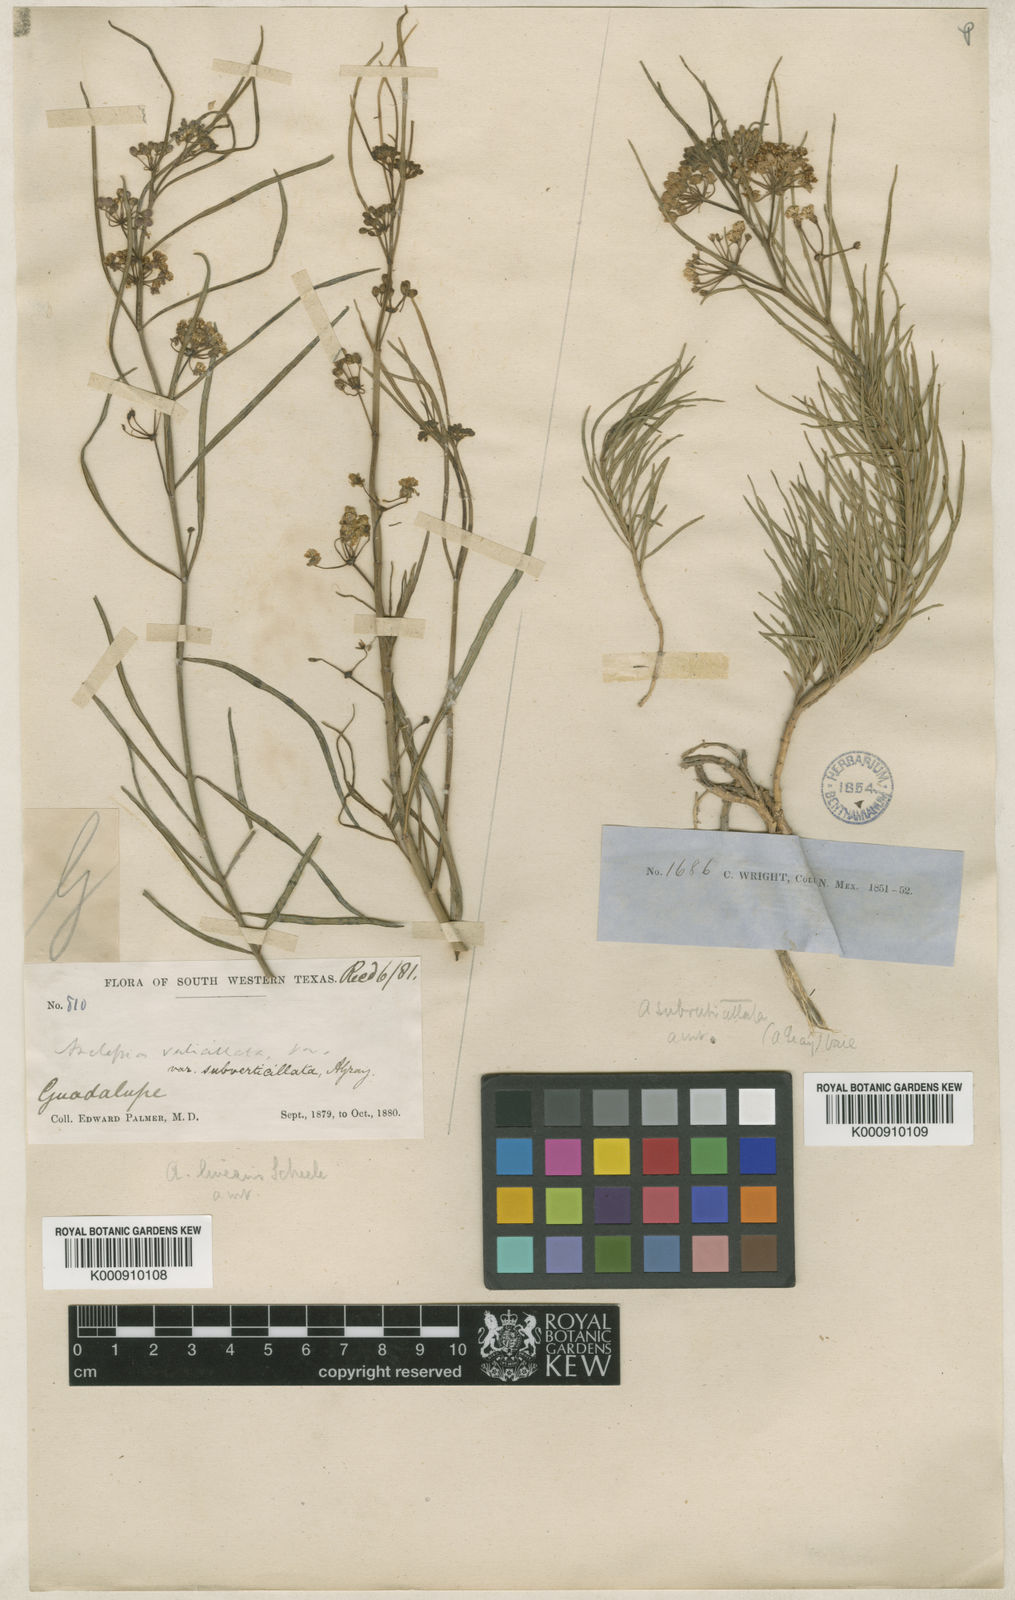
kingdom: Plantae
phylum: Tracheophyta
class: Magnoliopsida
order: Gentianales
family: Apocynaceae
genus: Asclepias
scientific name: Asclepias subverticillata
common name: Horsetail milkweed
